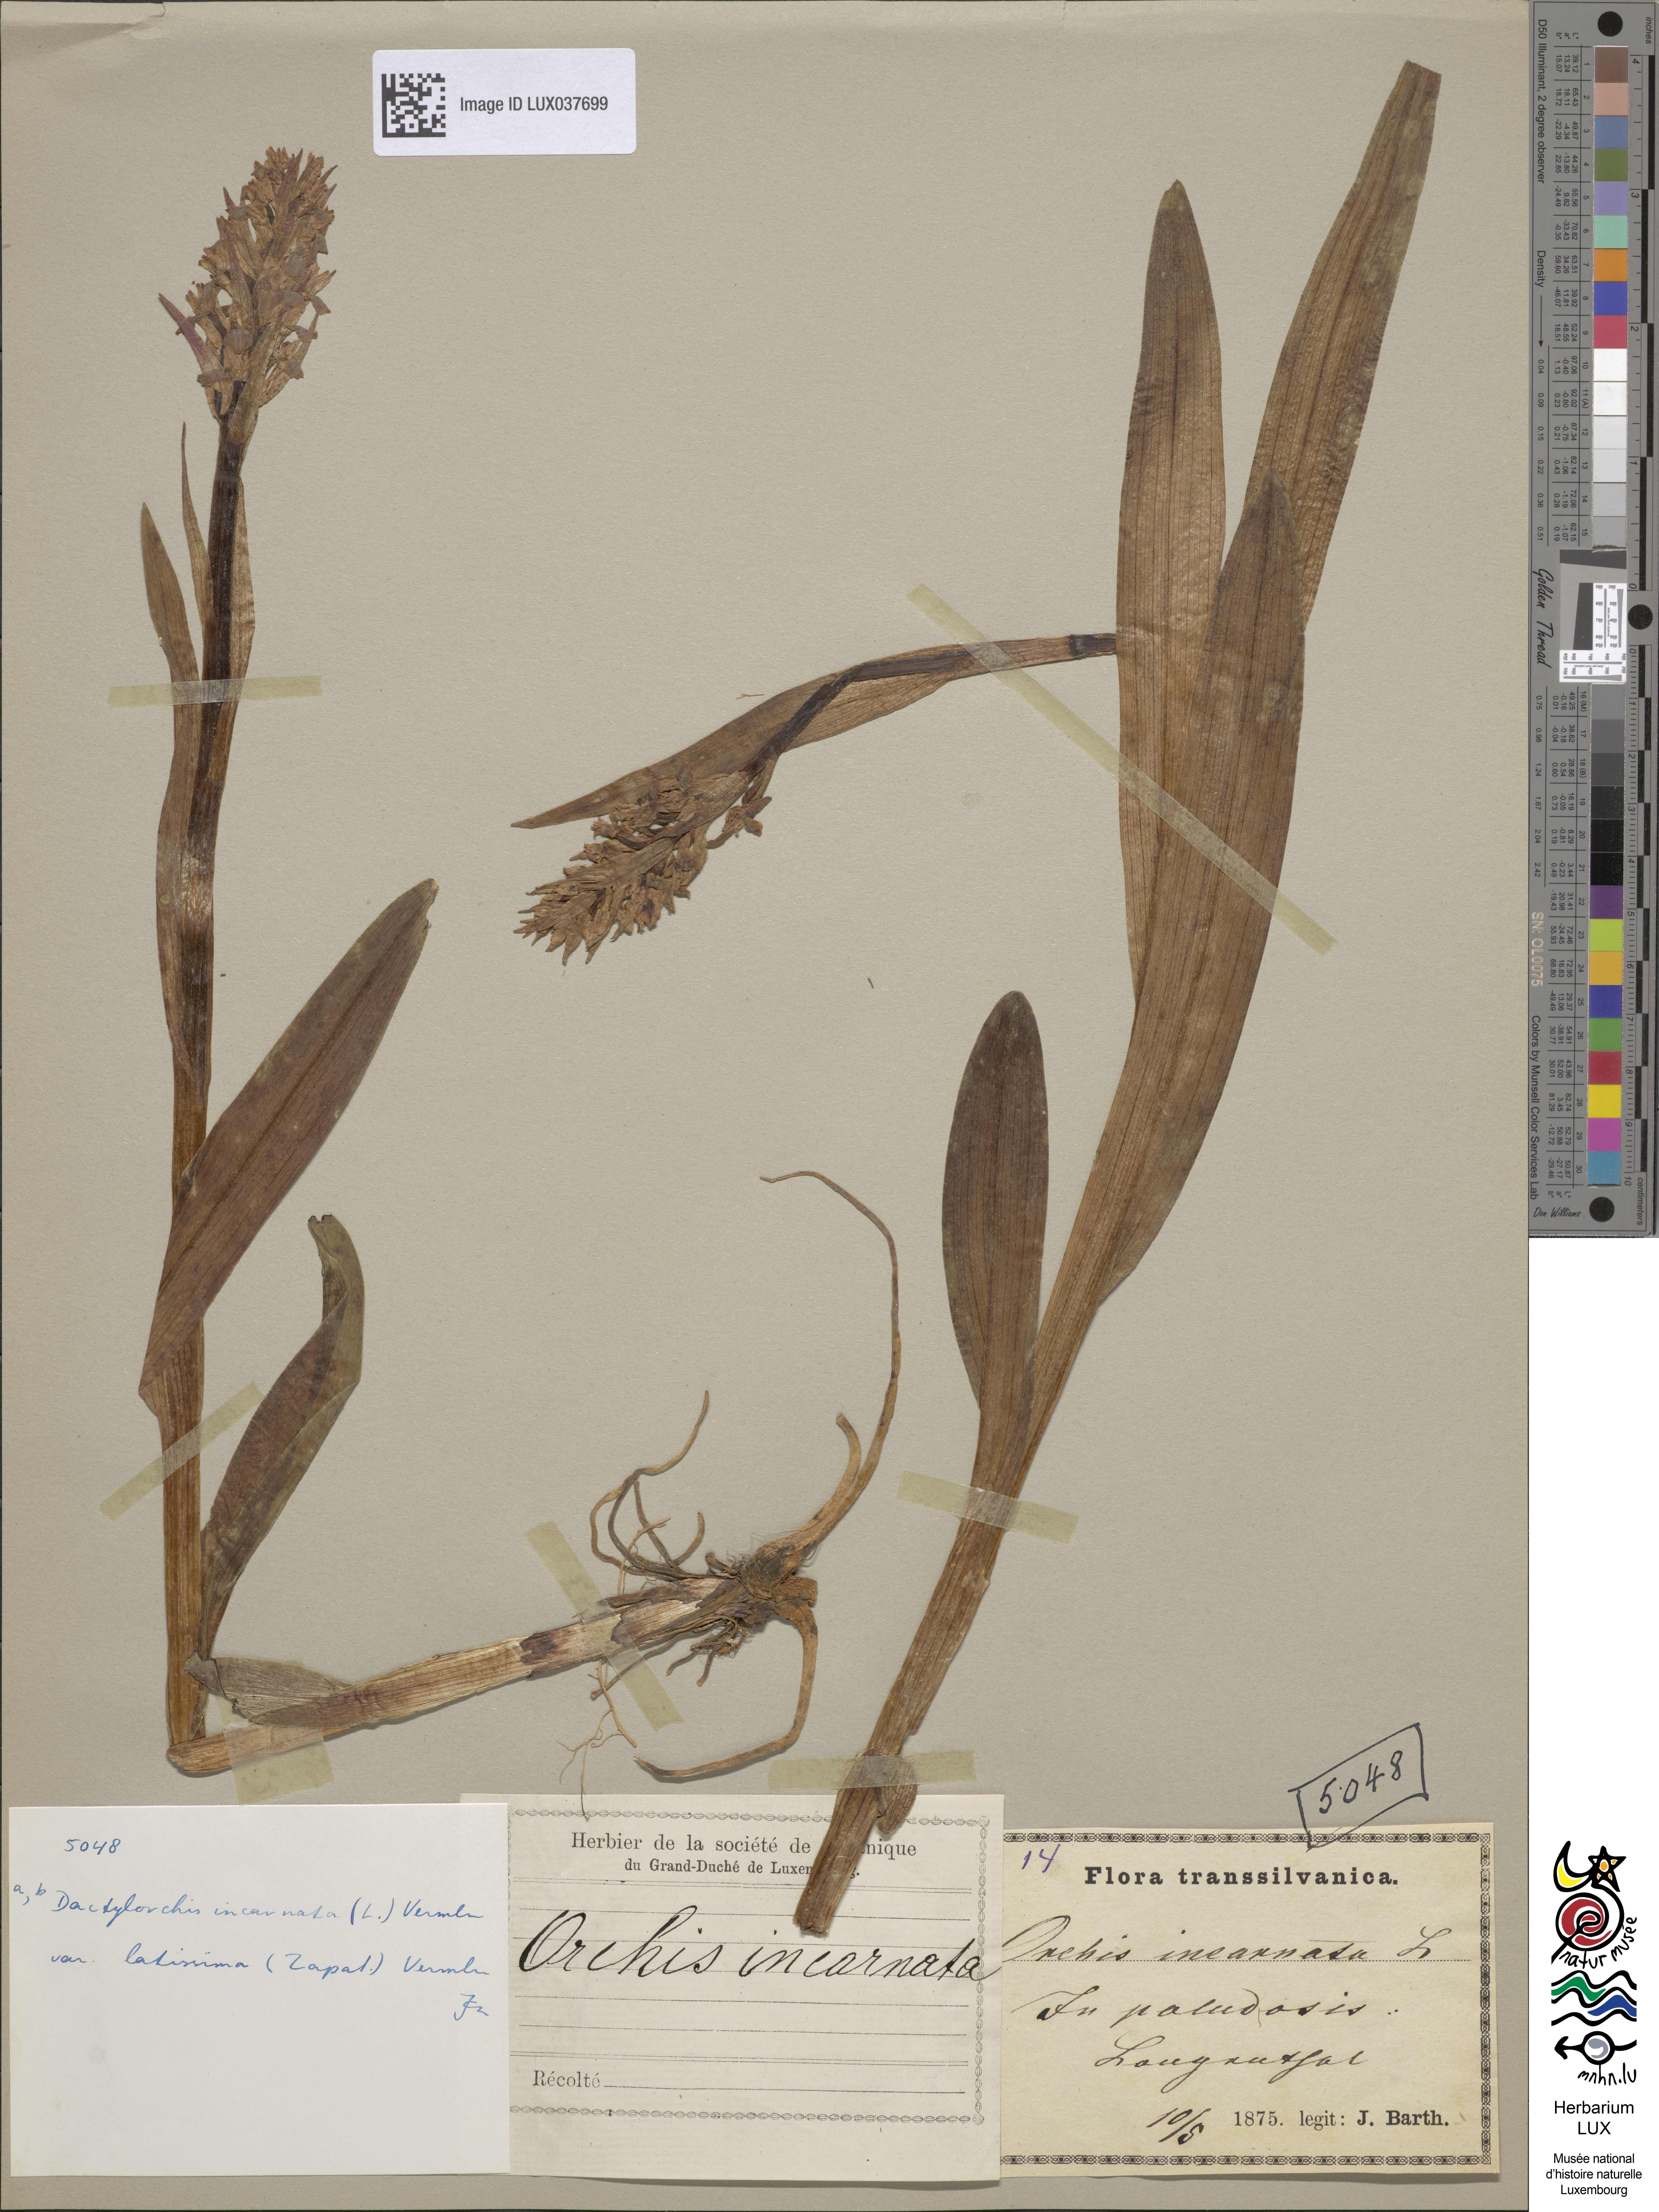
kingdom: Plantae
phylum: Tracheophyta
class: Liliopsida
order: Asparagales
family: Orchidaceae
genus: Dactylorhiza
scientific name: Dactylorhiza incarnata
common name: Early marsh-orchid
